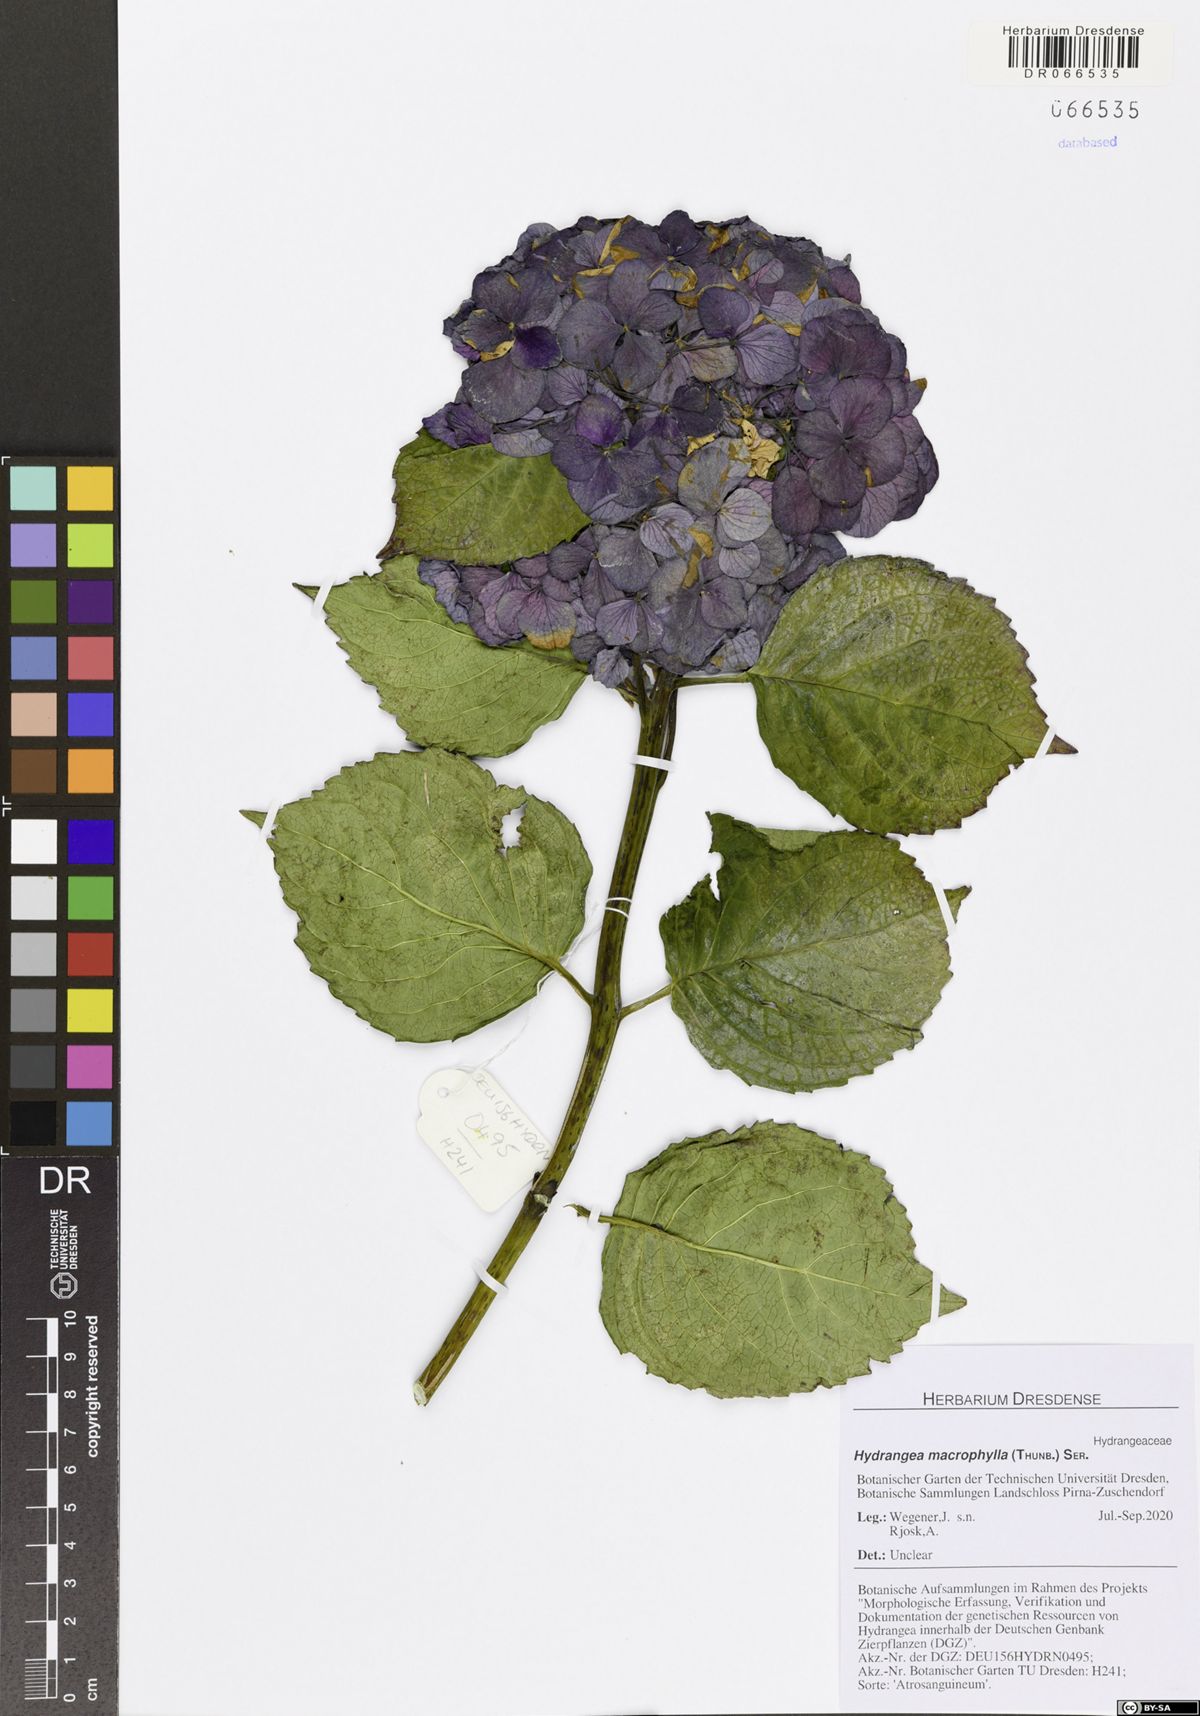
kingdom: Plantae
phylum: Tracheophyta
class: Magnoliopsida
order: Cornales
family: Hydrangeaceae
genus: Hydrangea
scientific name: Hydrangea macrophylla
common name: Hydrangea
